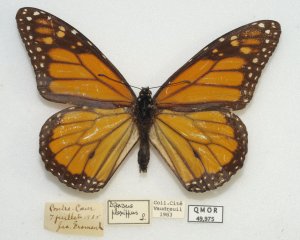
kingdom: Animalia
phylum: Arthropoda
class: Insecta
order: Lepidoptera
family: Nymphalidae
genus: Danaus
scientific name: Danaus plexippus
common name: Monarch
